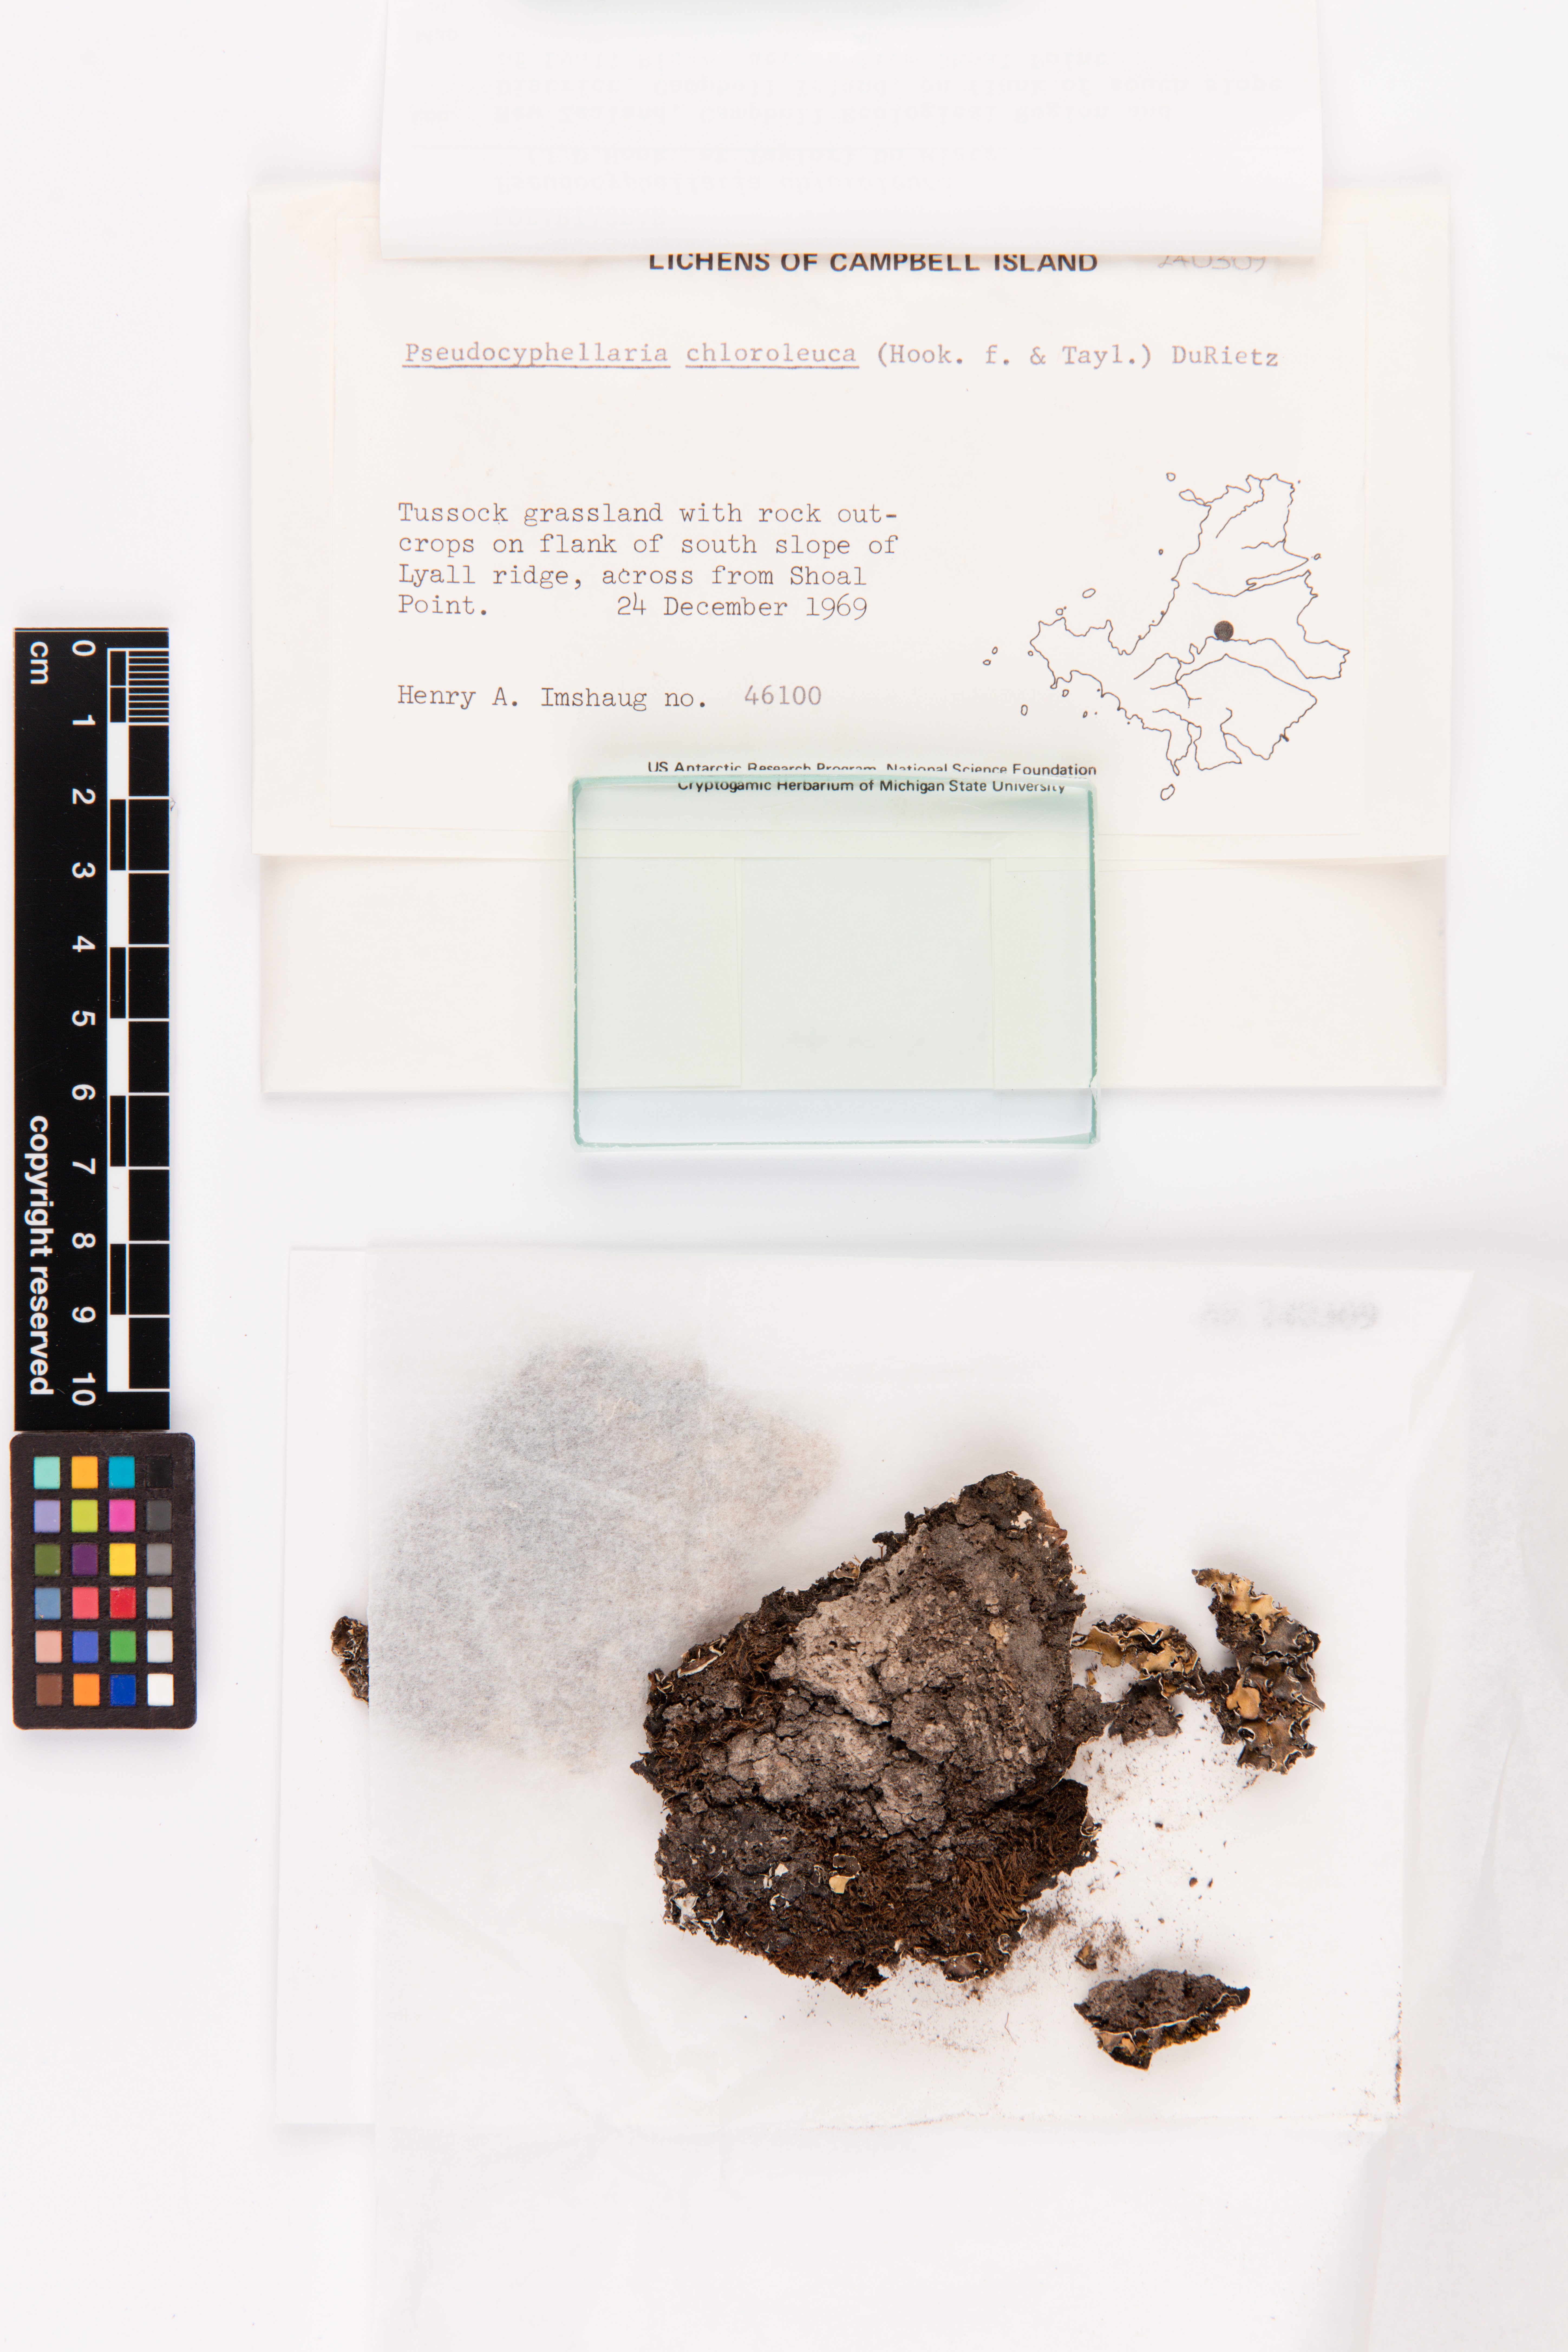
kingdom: Fungi
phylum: Ascomycota
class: Lecanoromycetes
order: Peltigerales
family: Lobariaceae
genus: Pseudocyphellaria
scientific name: Pseudocyphellaria chloroleuca
